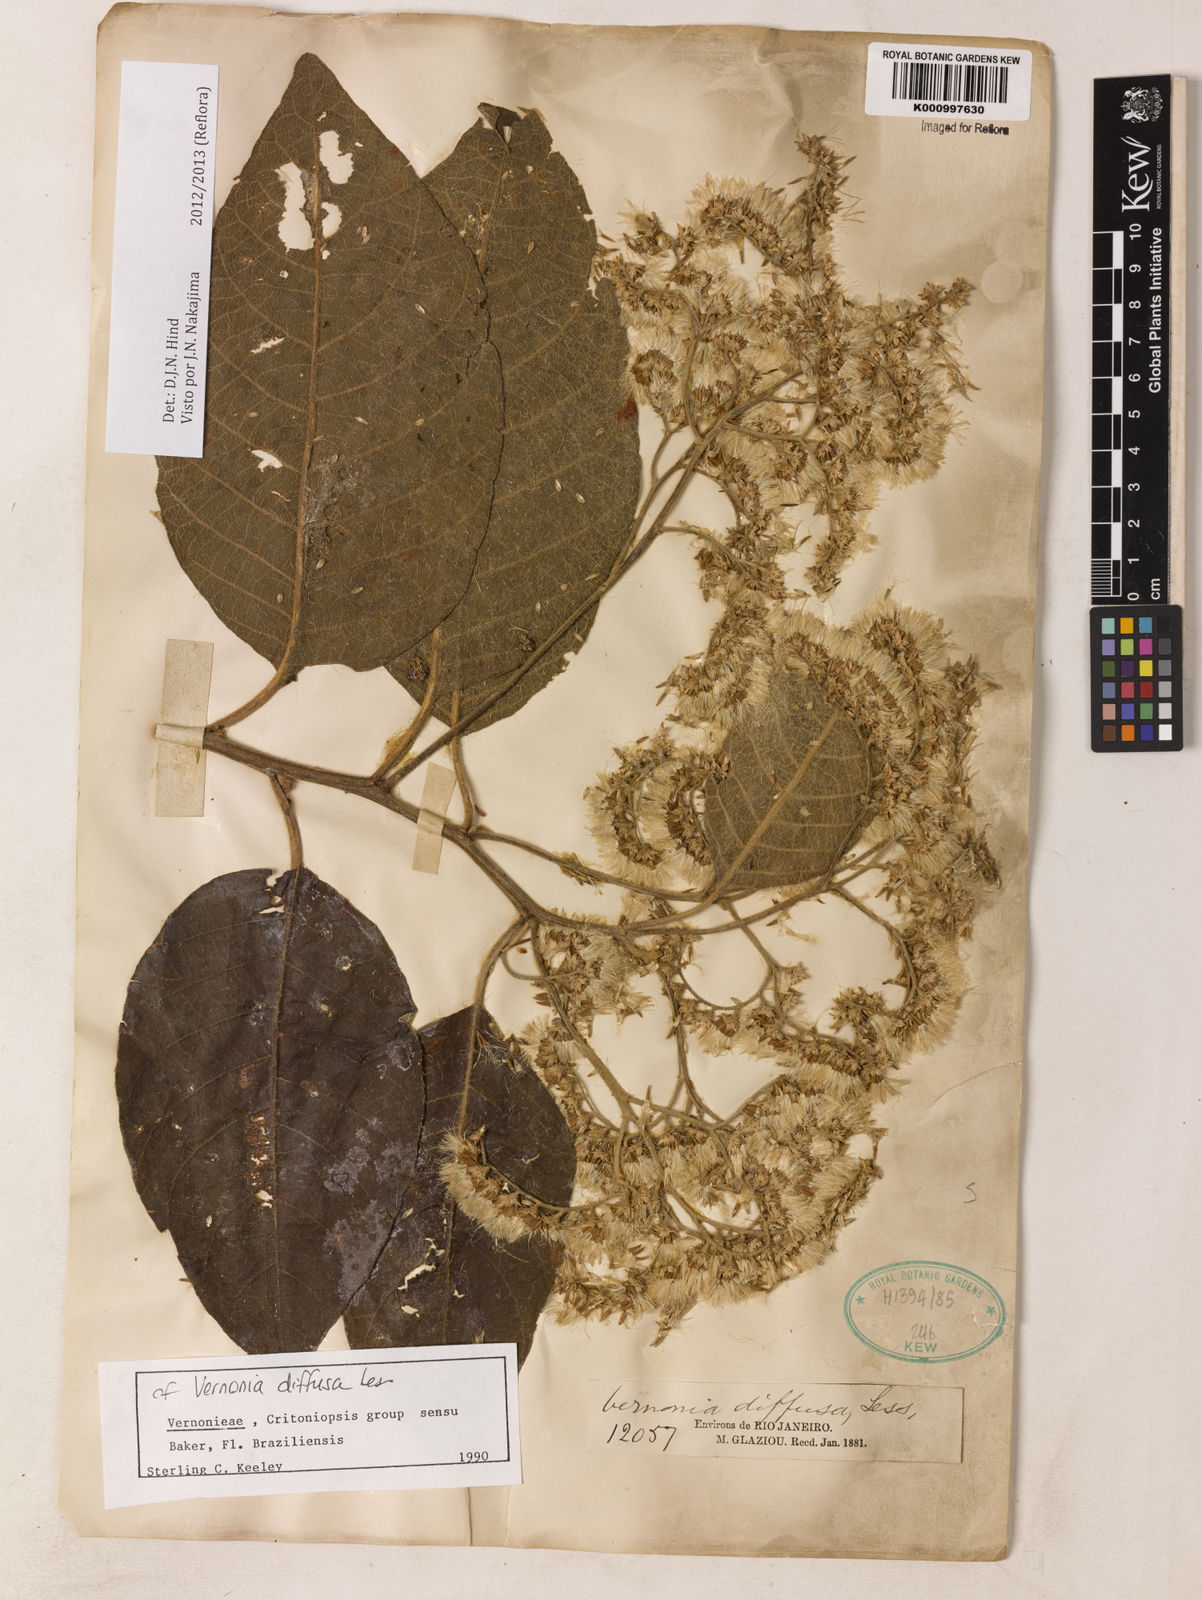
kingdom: Plantae
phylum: Tracheophyta
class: Magnoliopsida
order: Asterales
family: Asteraceae
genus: Vernonanthura
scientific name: Vernonanthura divaricata
